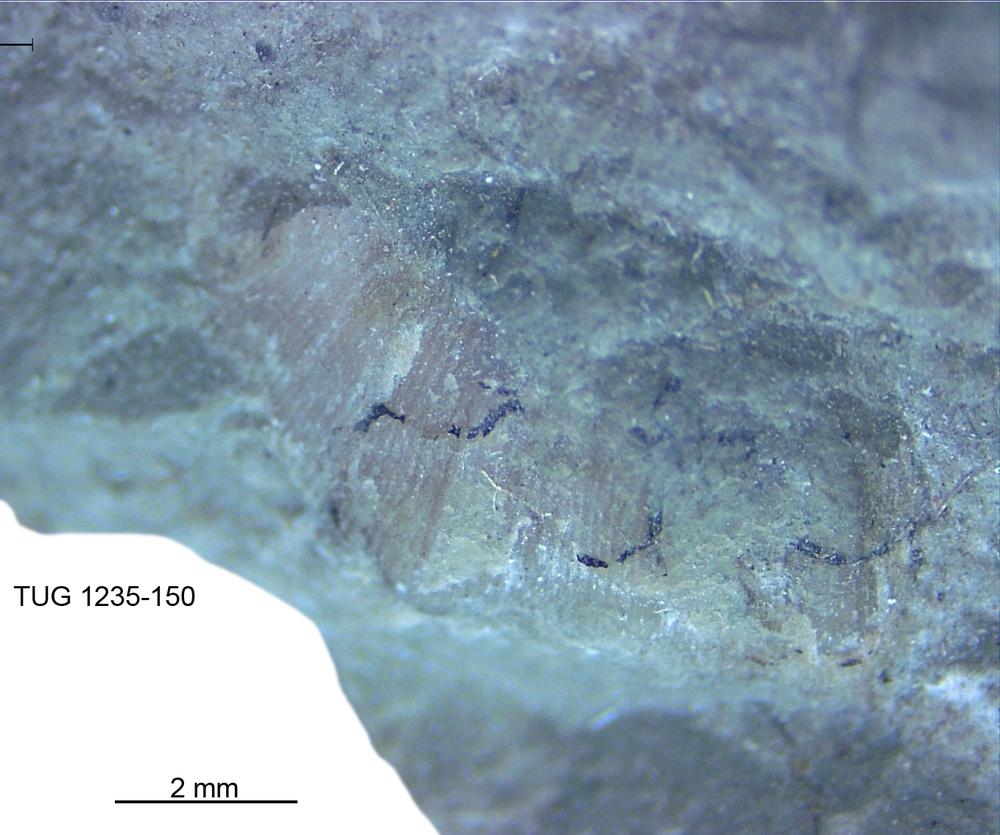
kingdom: Animalia
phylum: Brachiopoda
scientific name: Brachiopoda
